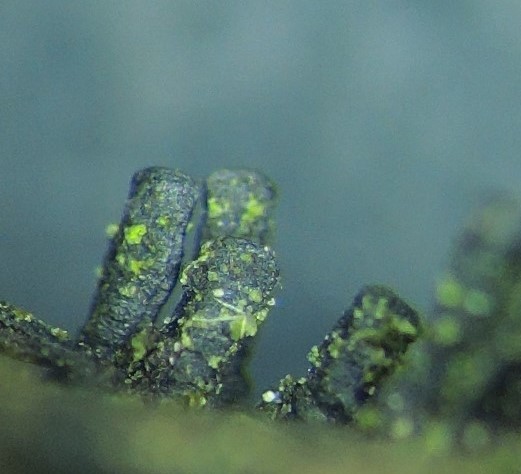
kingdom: Fungi
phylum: Ascomycota
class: Eurotiomycetes
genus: Glyphium
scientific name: Glyphium elatum
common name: kuløkse
